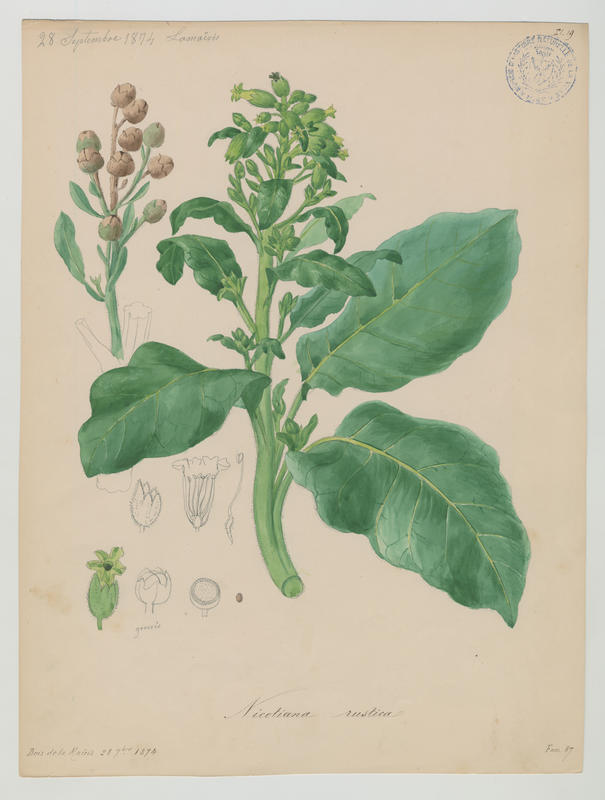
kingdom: Plantae
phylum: Tracheophyta
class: Magnoliopsida
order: Solanales
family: Solanaceae
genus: Nicotiana
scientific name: Nicotiana rustica
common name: Wild tobacco
